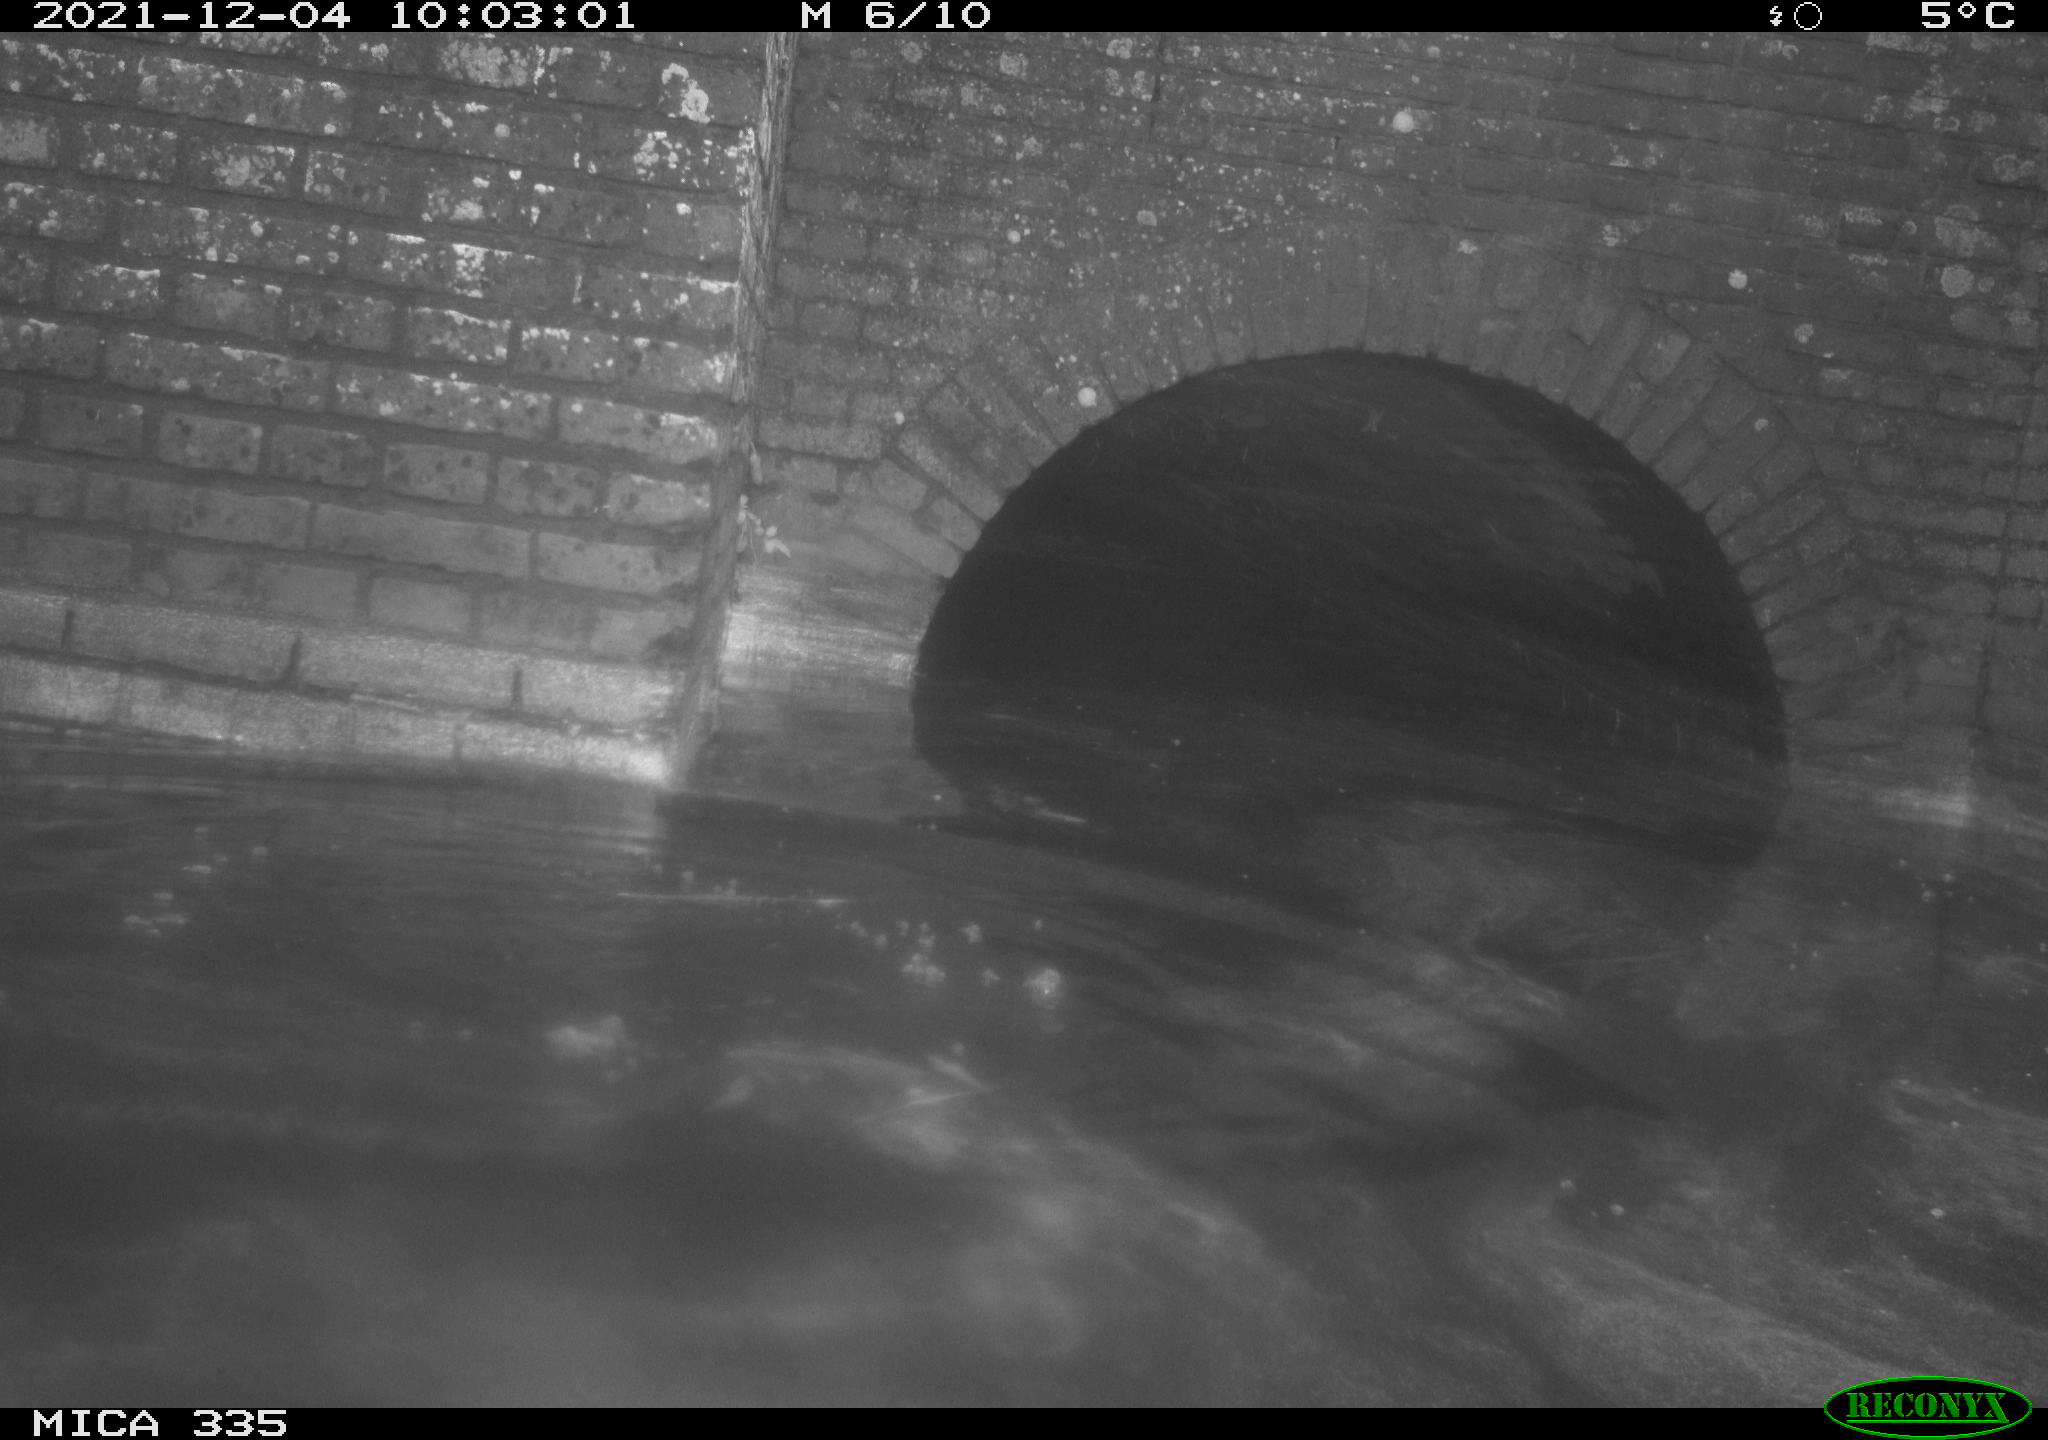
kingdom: Animalia
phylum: Chordata
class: Aves
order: Suliformes
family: Phalacrocoracidae
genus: Phalacrocorax
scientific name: Phalacrocorax carbo
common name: Great cormorant
